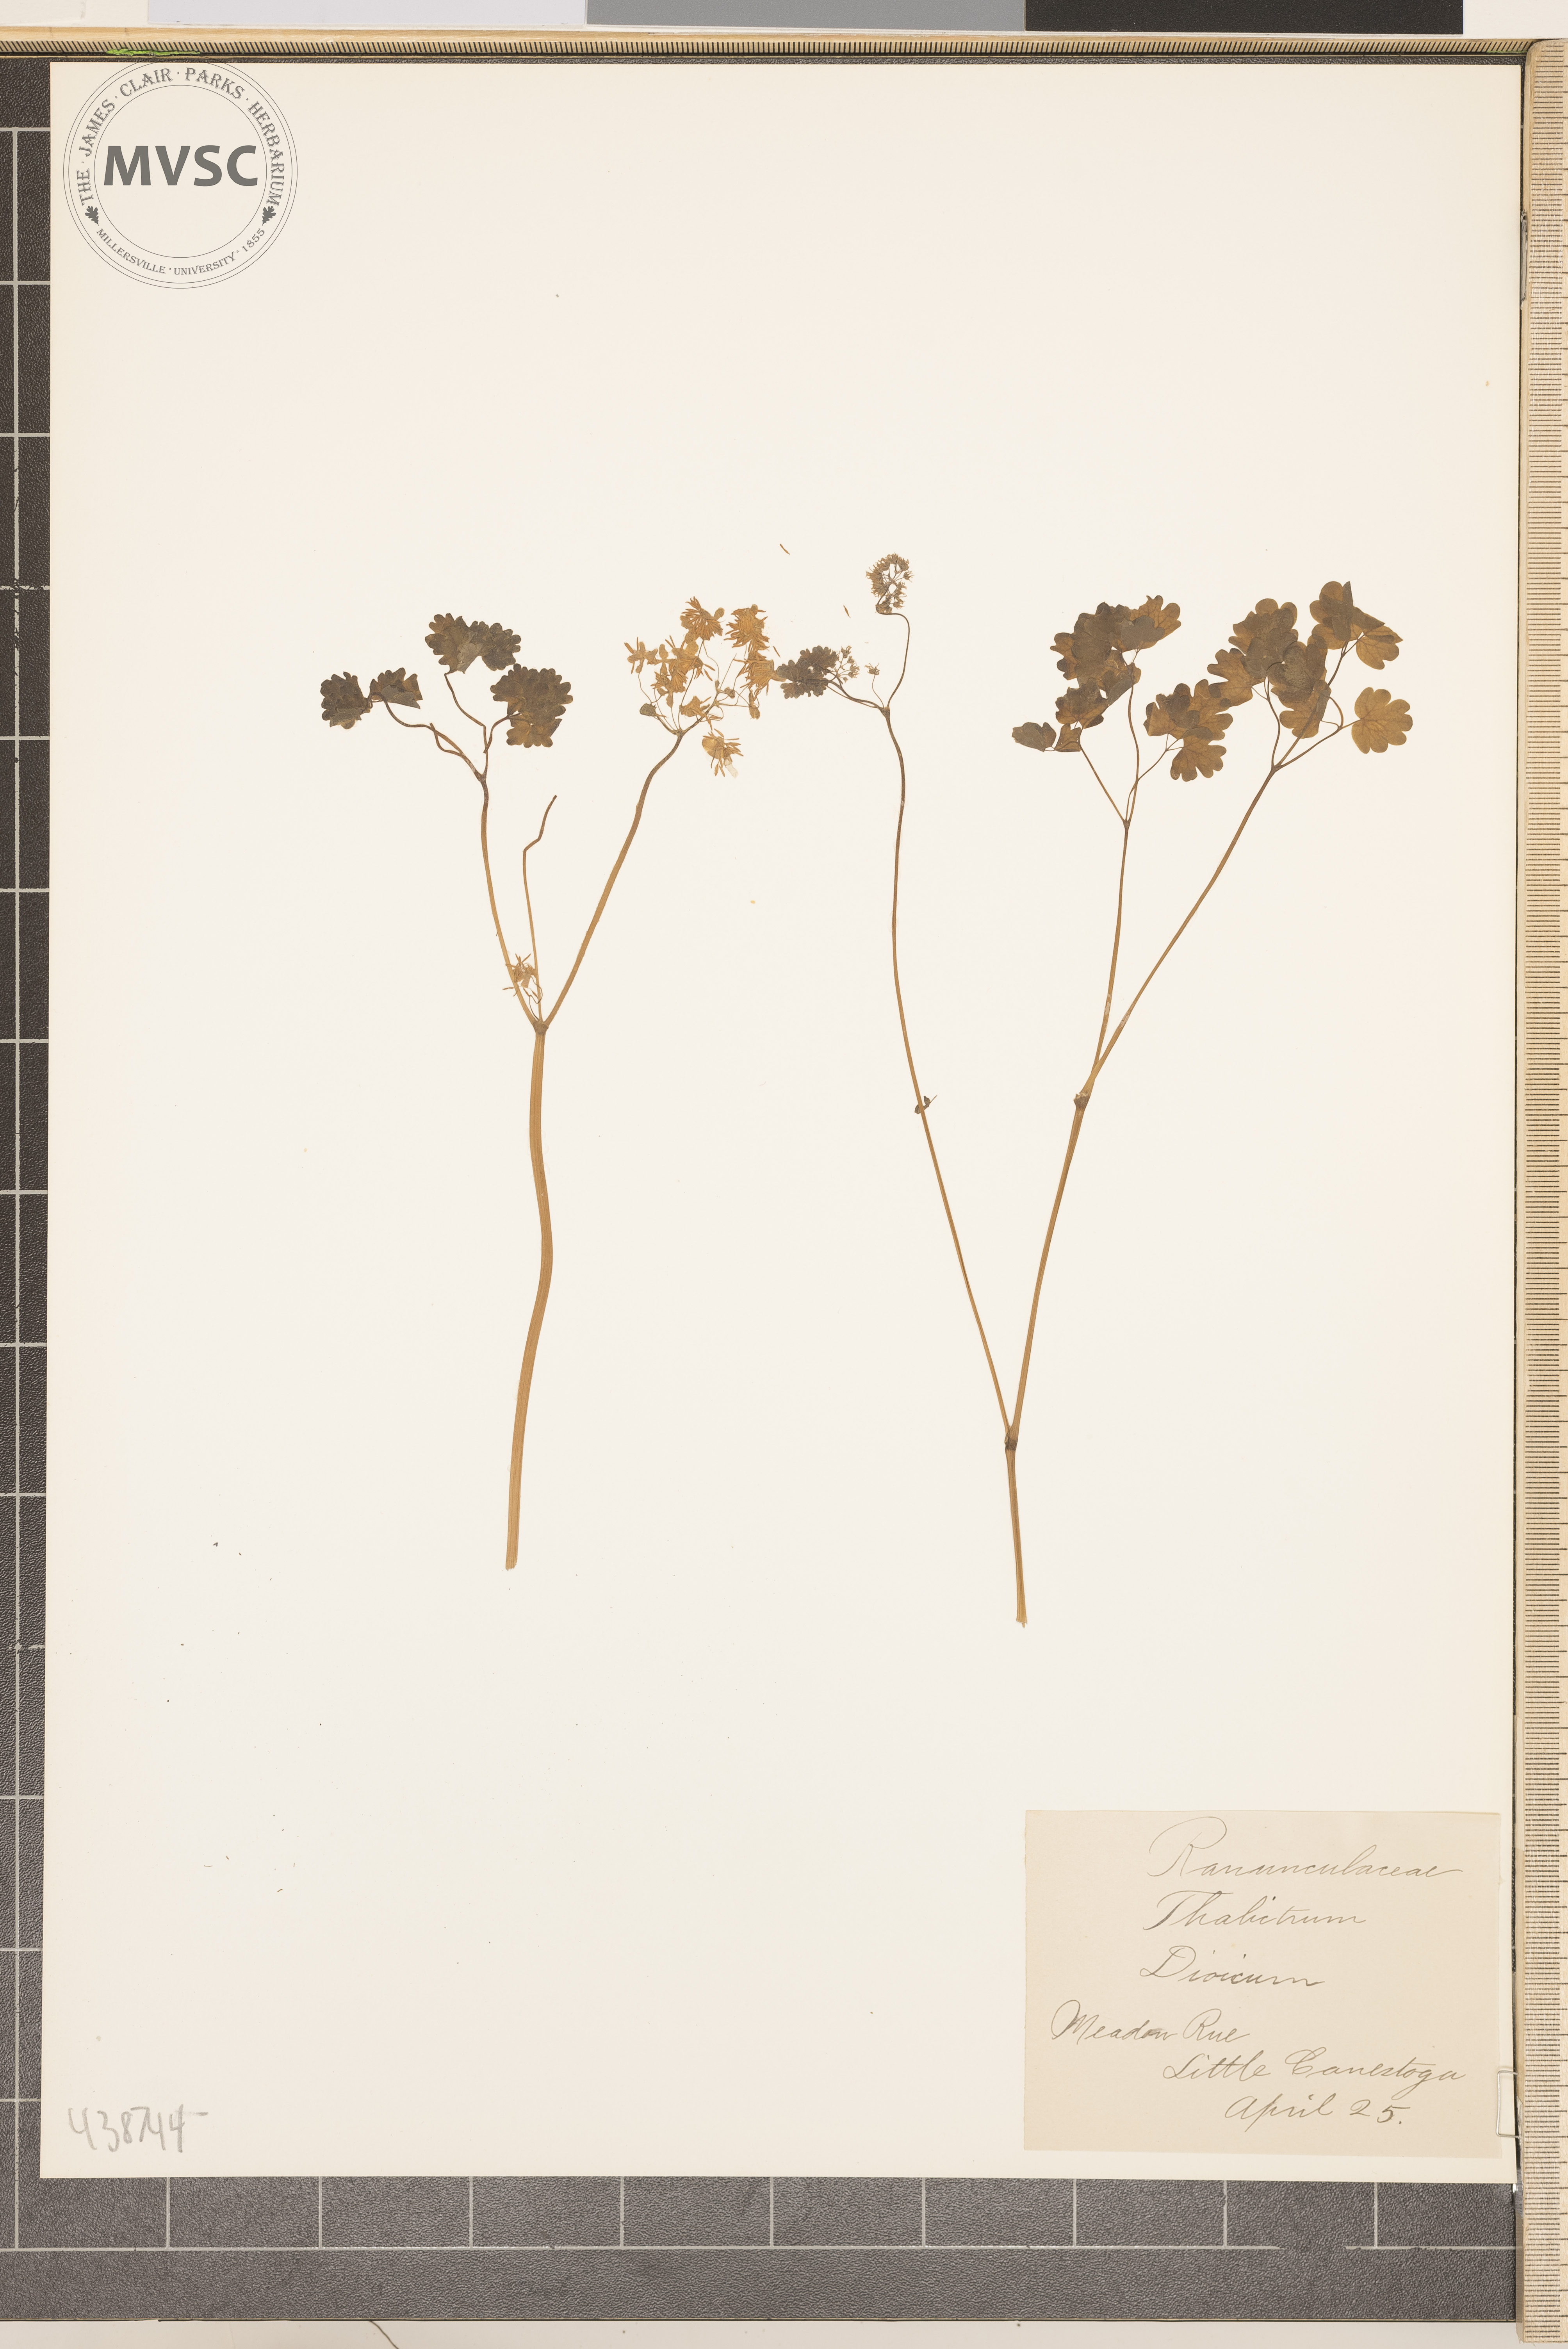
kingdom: Plantae
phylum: Tracheophyta
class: Magnoliopsida
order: Ranunculales
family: Ranunculaceae
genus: Thalictrum
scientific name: Thalictrum dioicum
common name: Meadow rue
